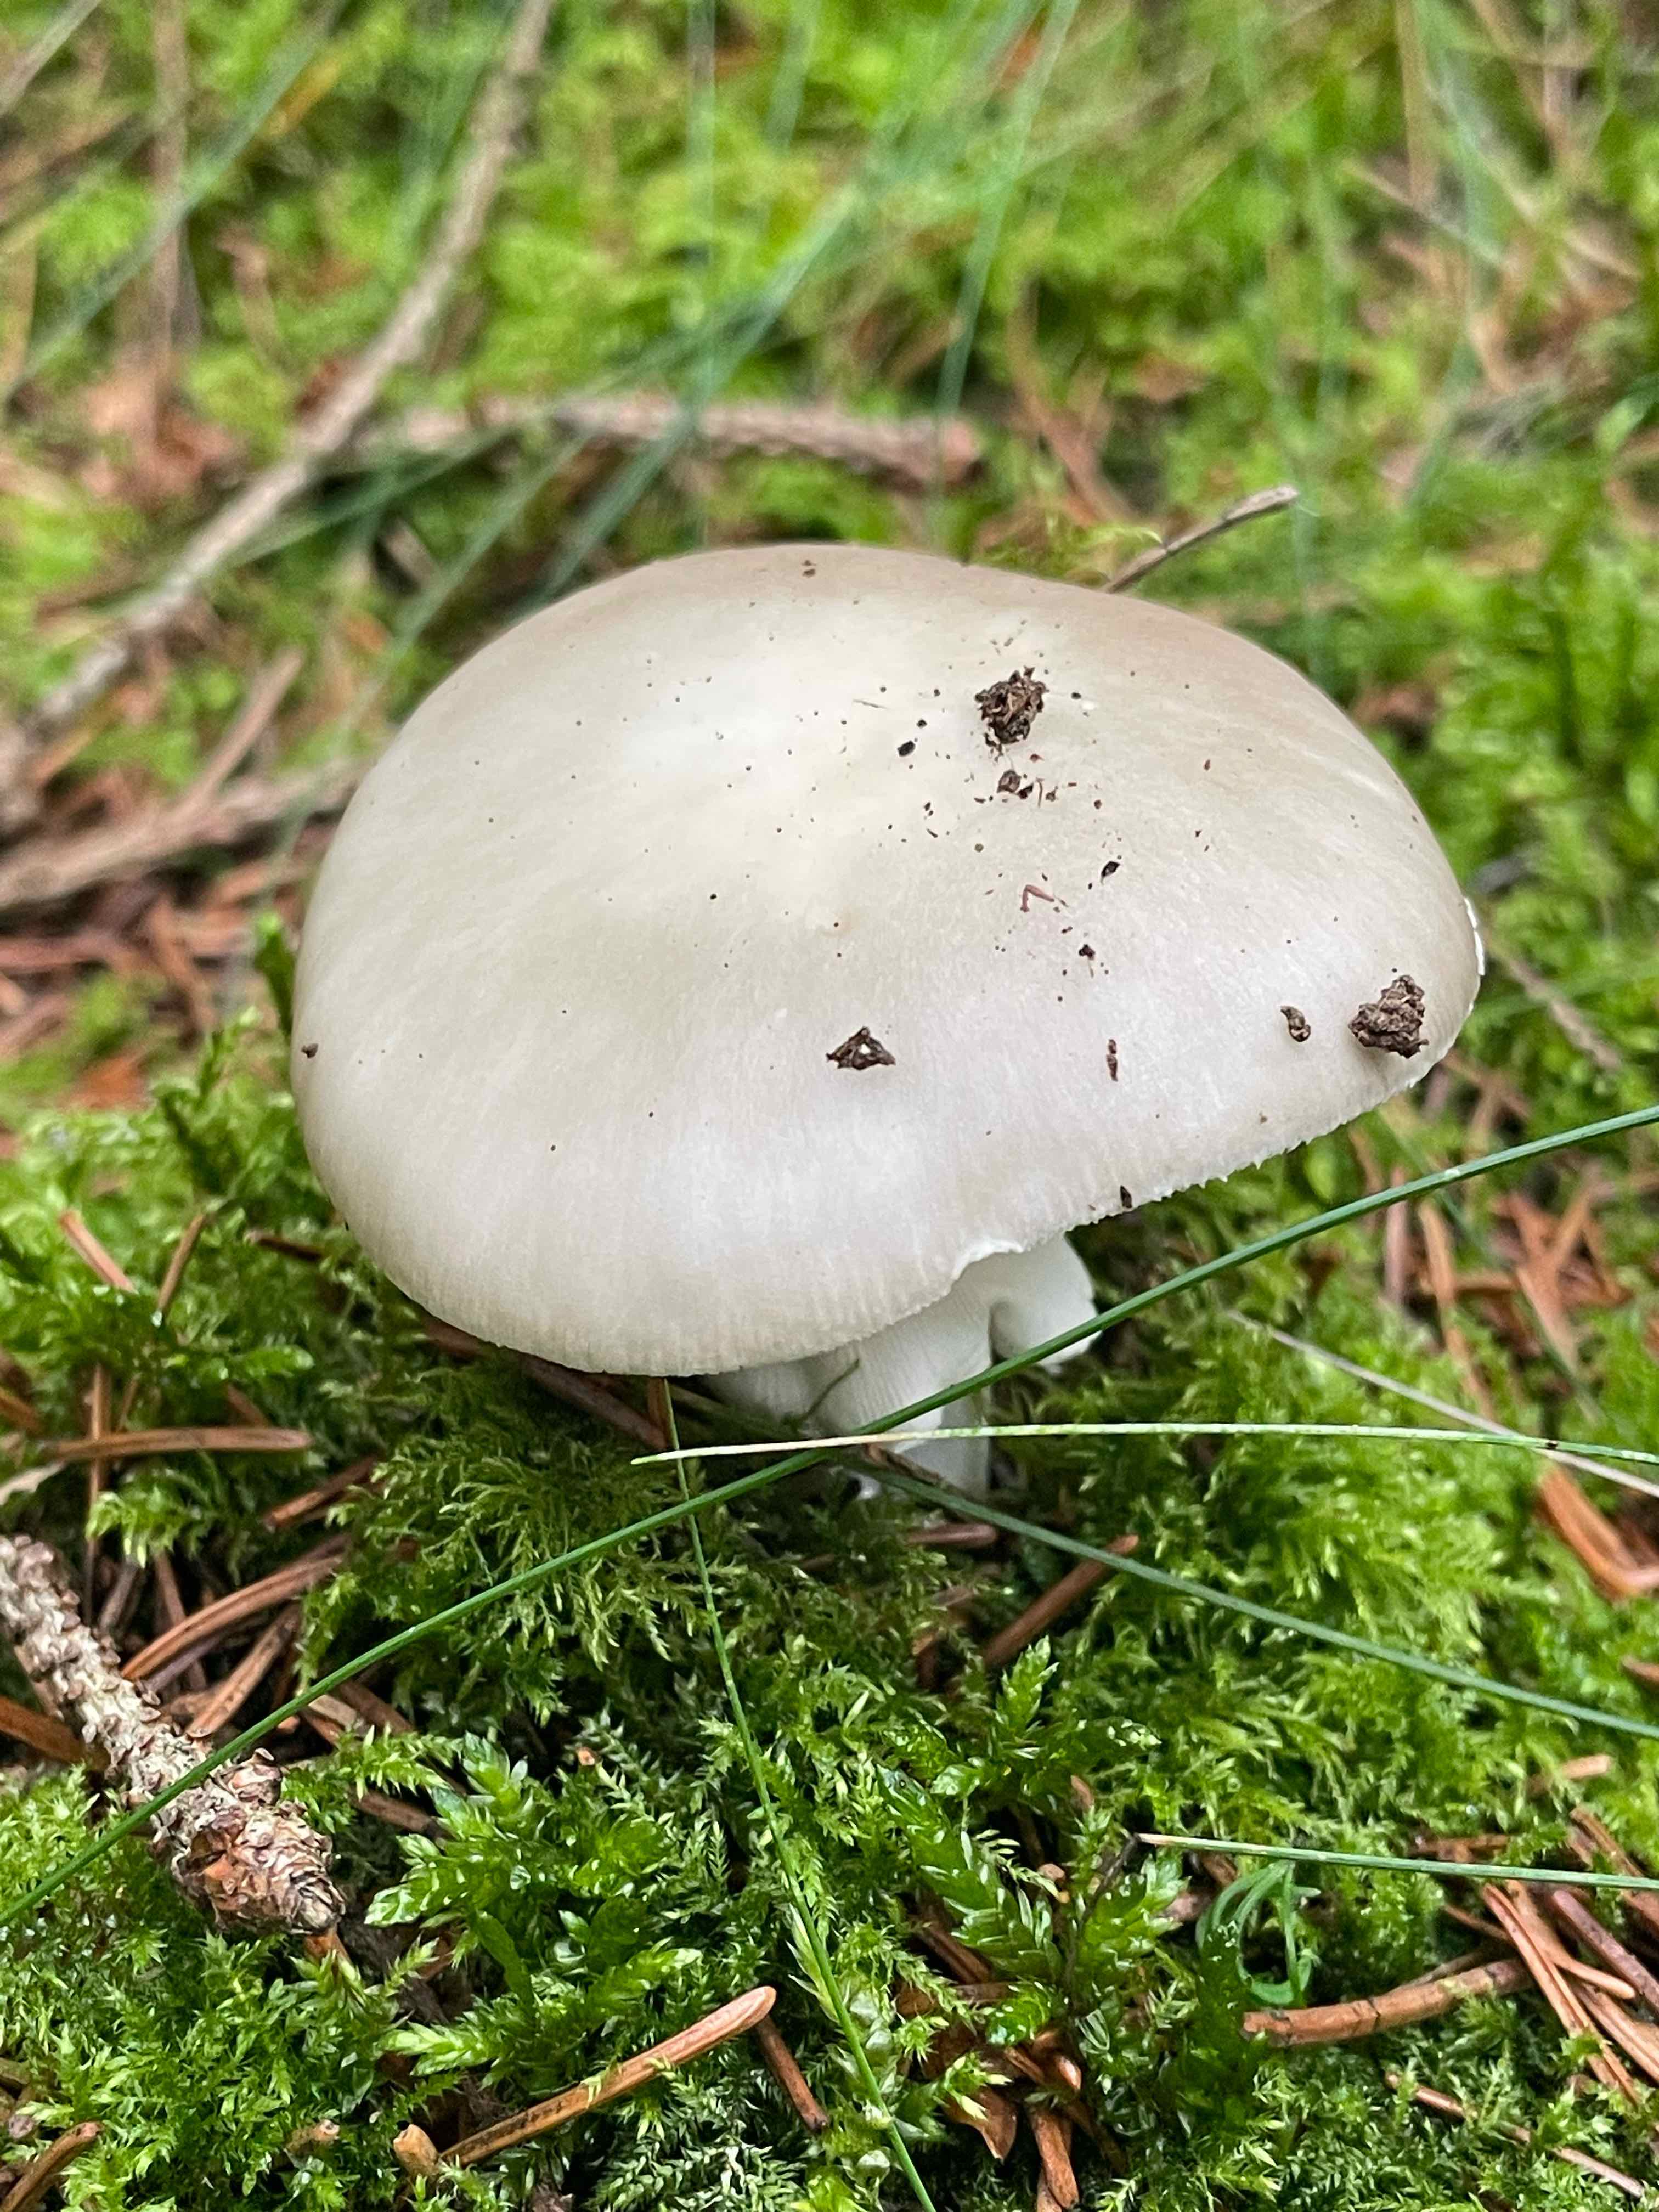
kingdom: Fungi
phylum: Basidiomycota
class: Agaricomycetes
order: Agaricales
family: Amanitaceae
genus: Amanita
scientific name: Amanita
